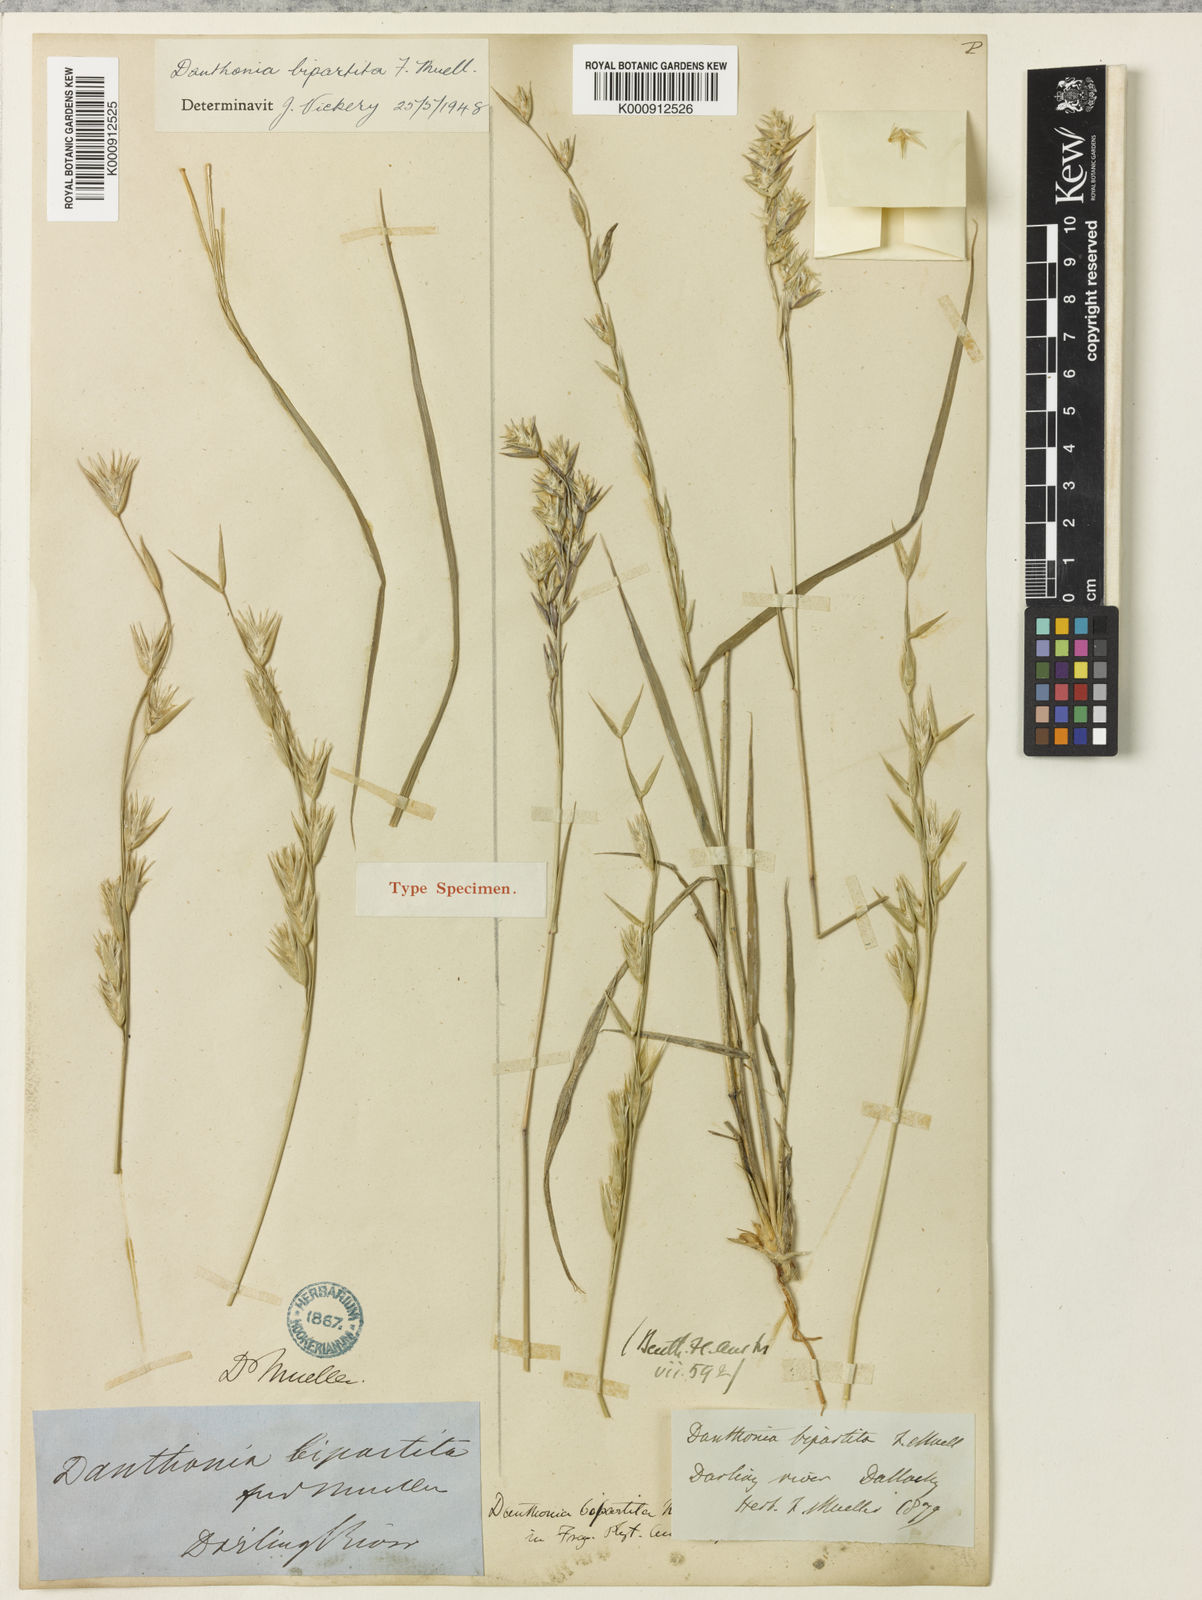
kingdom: Plantae
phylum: Tracheophyta
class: Liliopsida
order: Poales
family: Poaceae
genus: Monachather
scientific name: Monachather paradoxus
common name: Bandicoot grass
